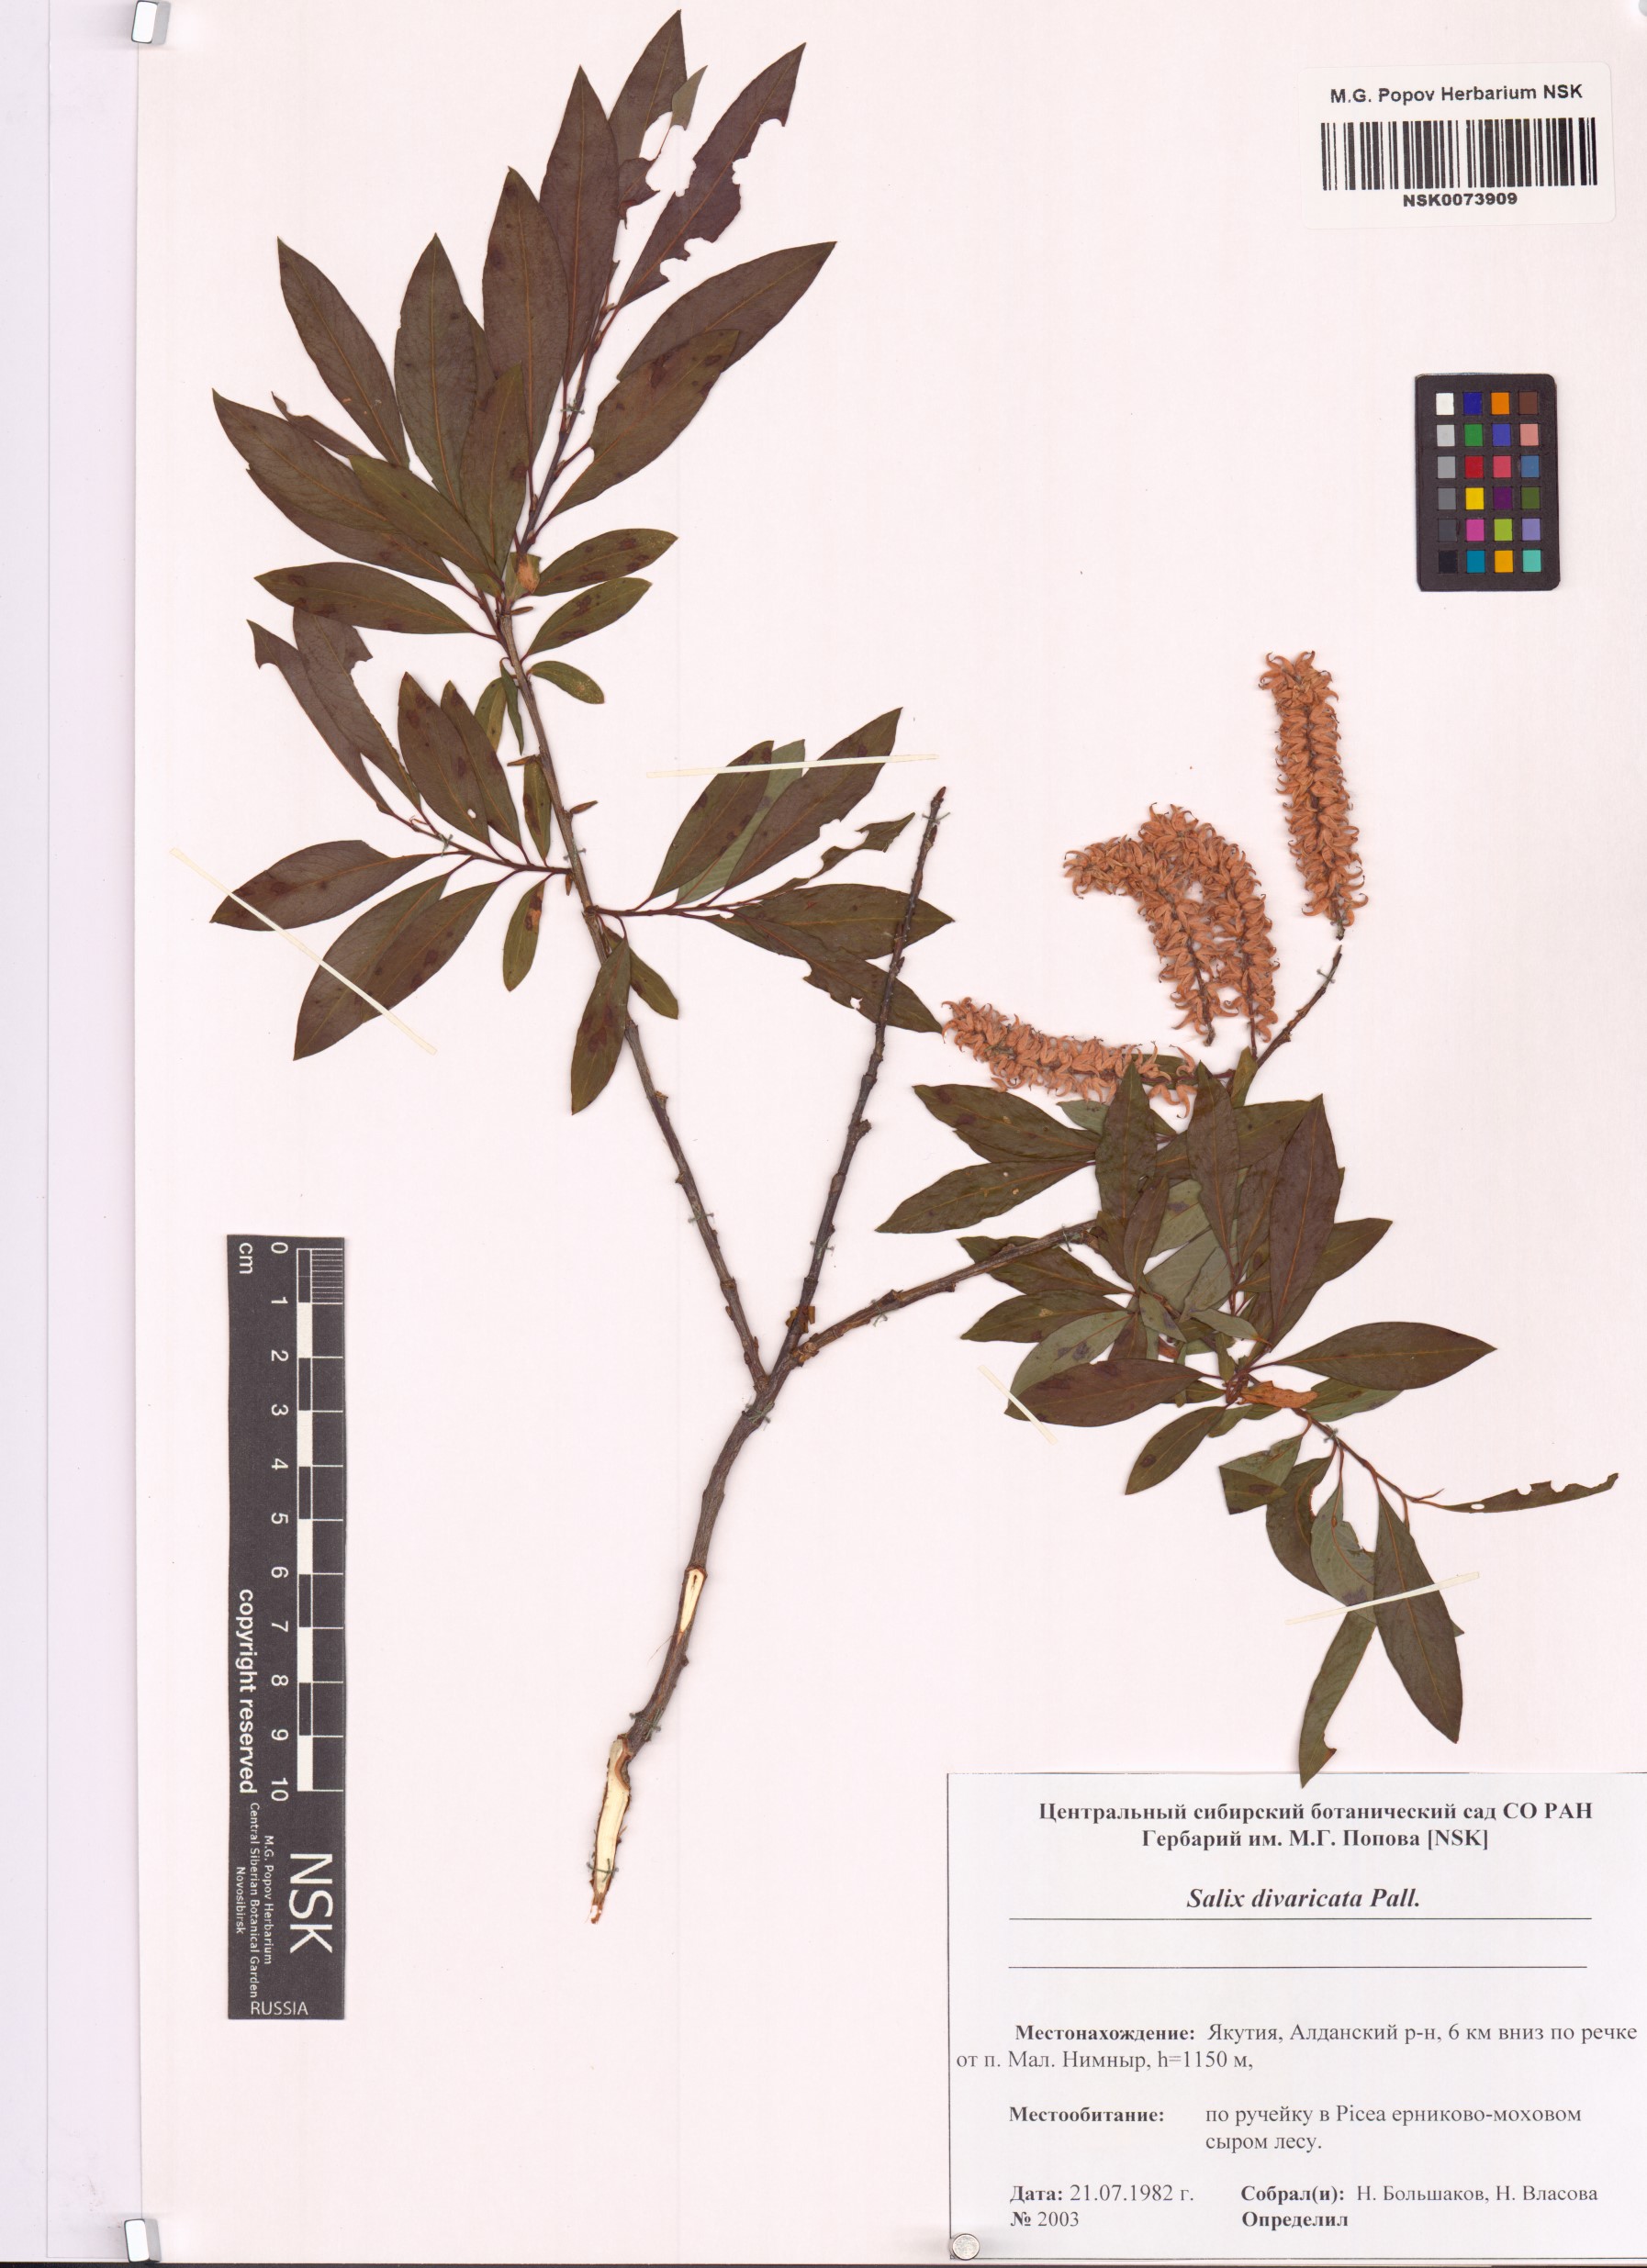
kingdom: Plantae
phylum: Tracheophyta
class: Magnoliopsida
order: Malpighiales
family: Salicaceae
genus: Salix
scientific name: Salix divaricata
